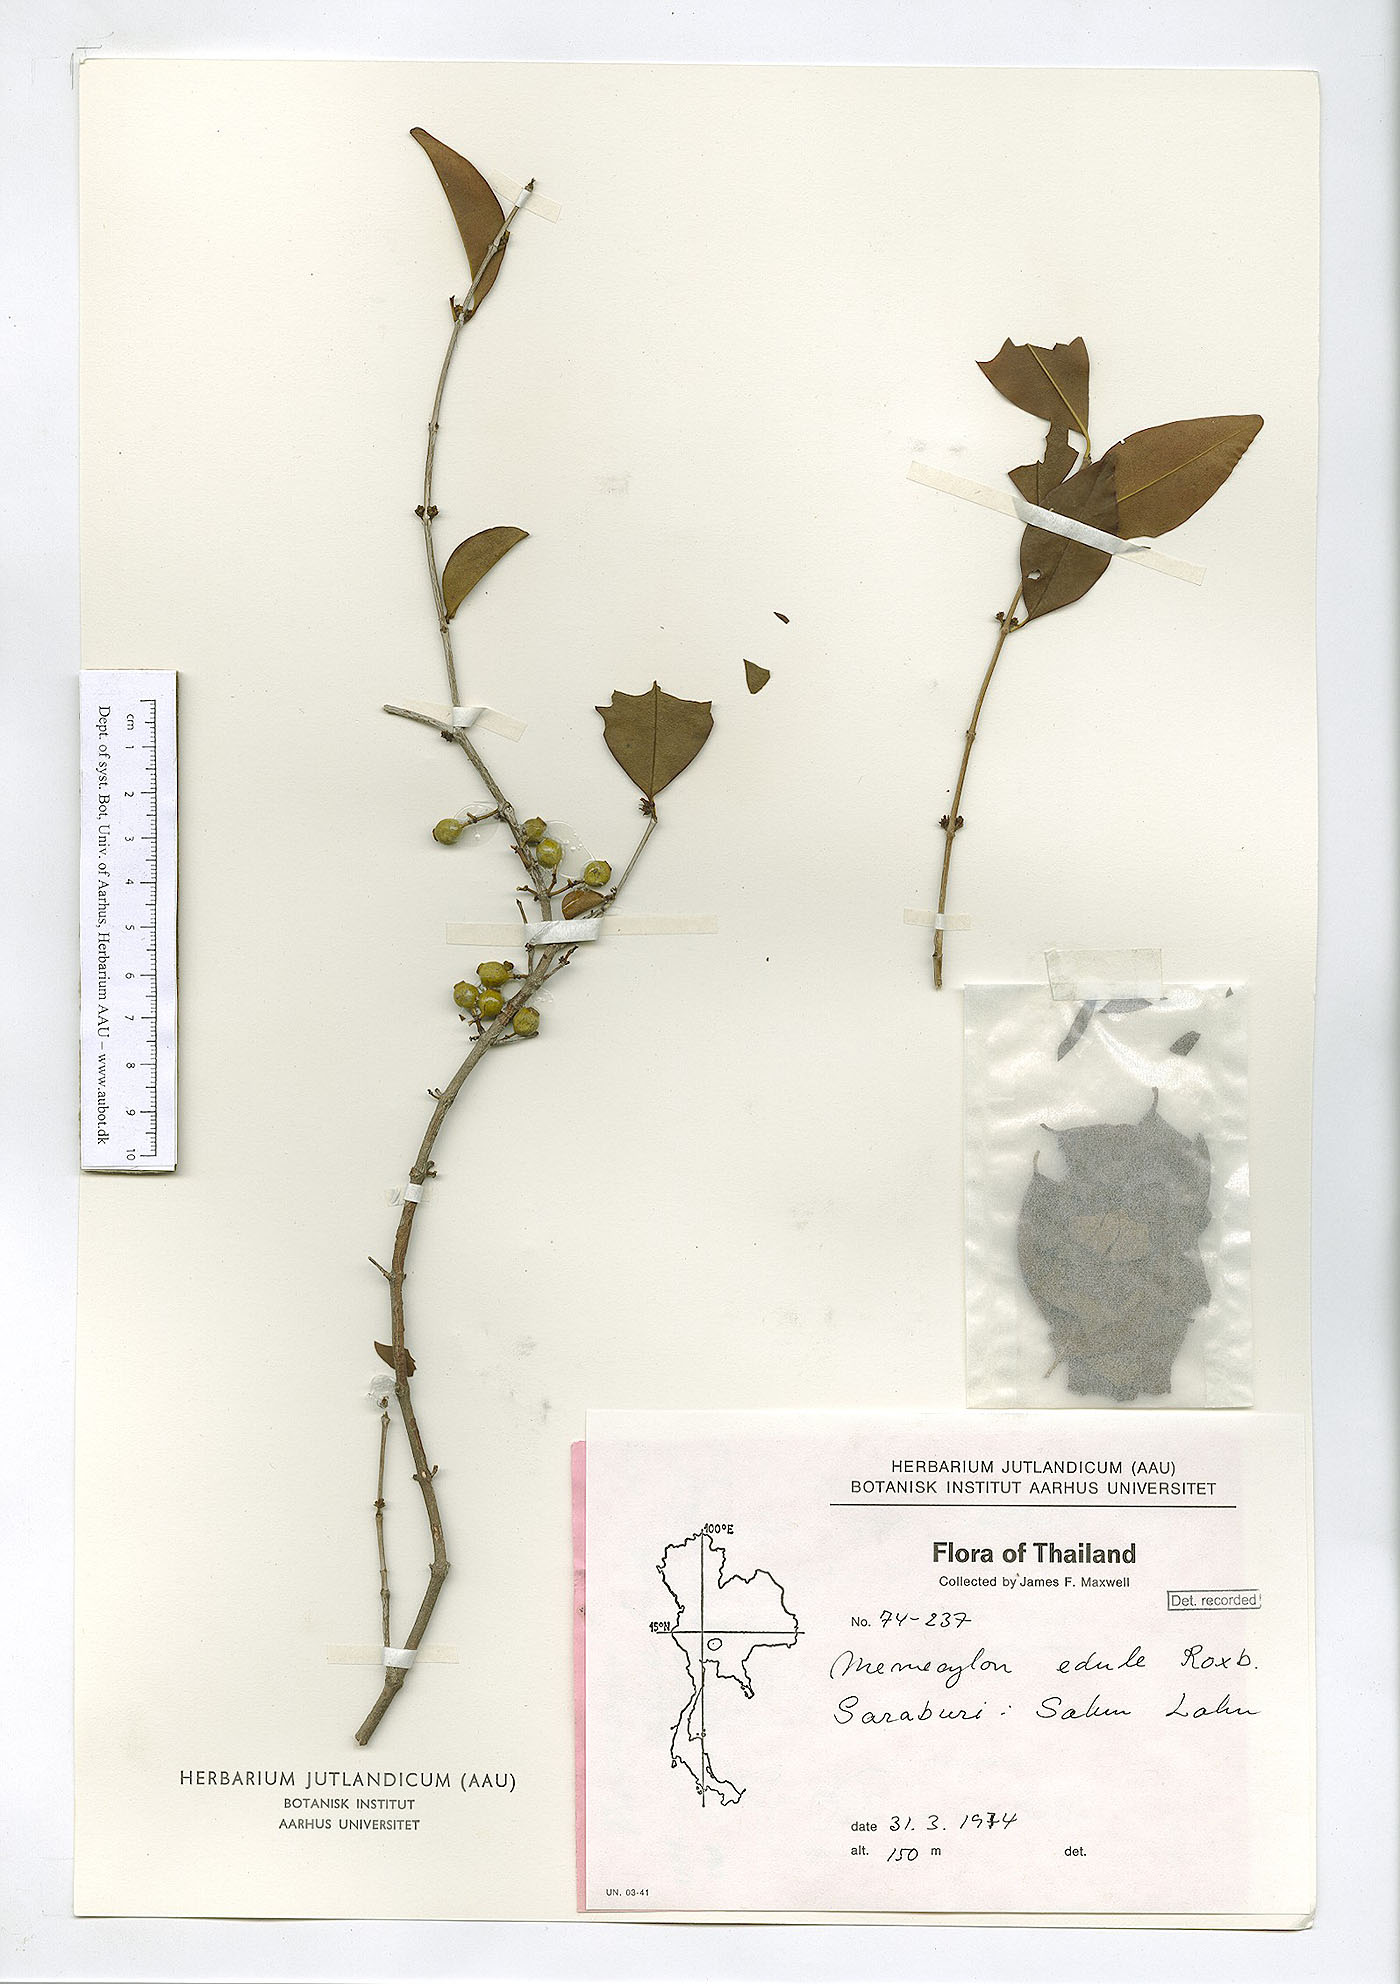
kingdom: Plantae
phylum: Tracheophyta
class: Magnoliopsida
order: Myrtales
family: Melastomataceae
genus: Memecylon
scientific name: Memecylon scutellatum
